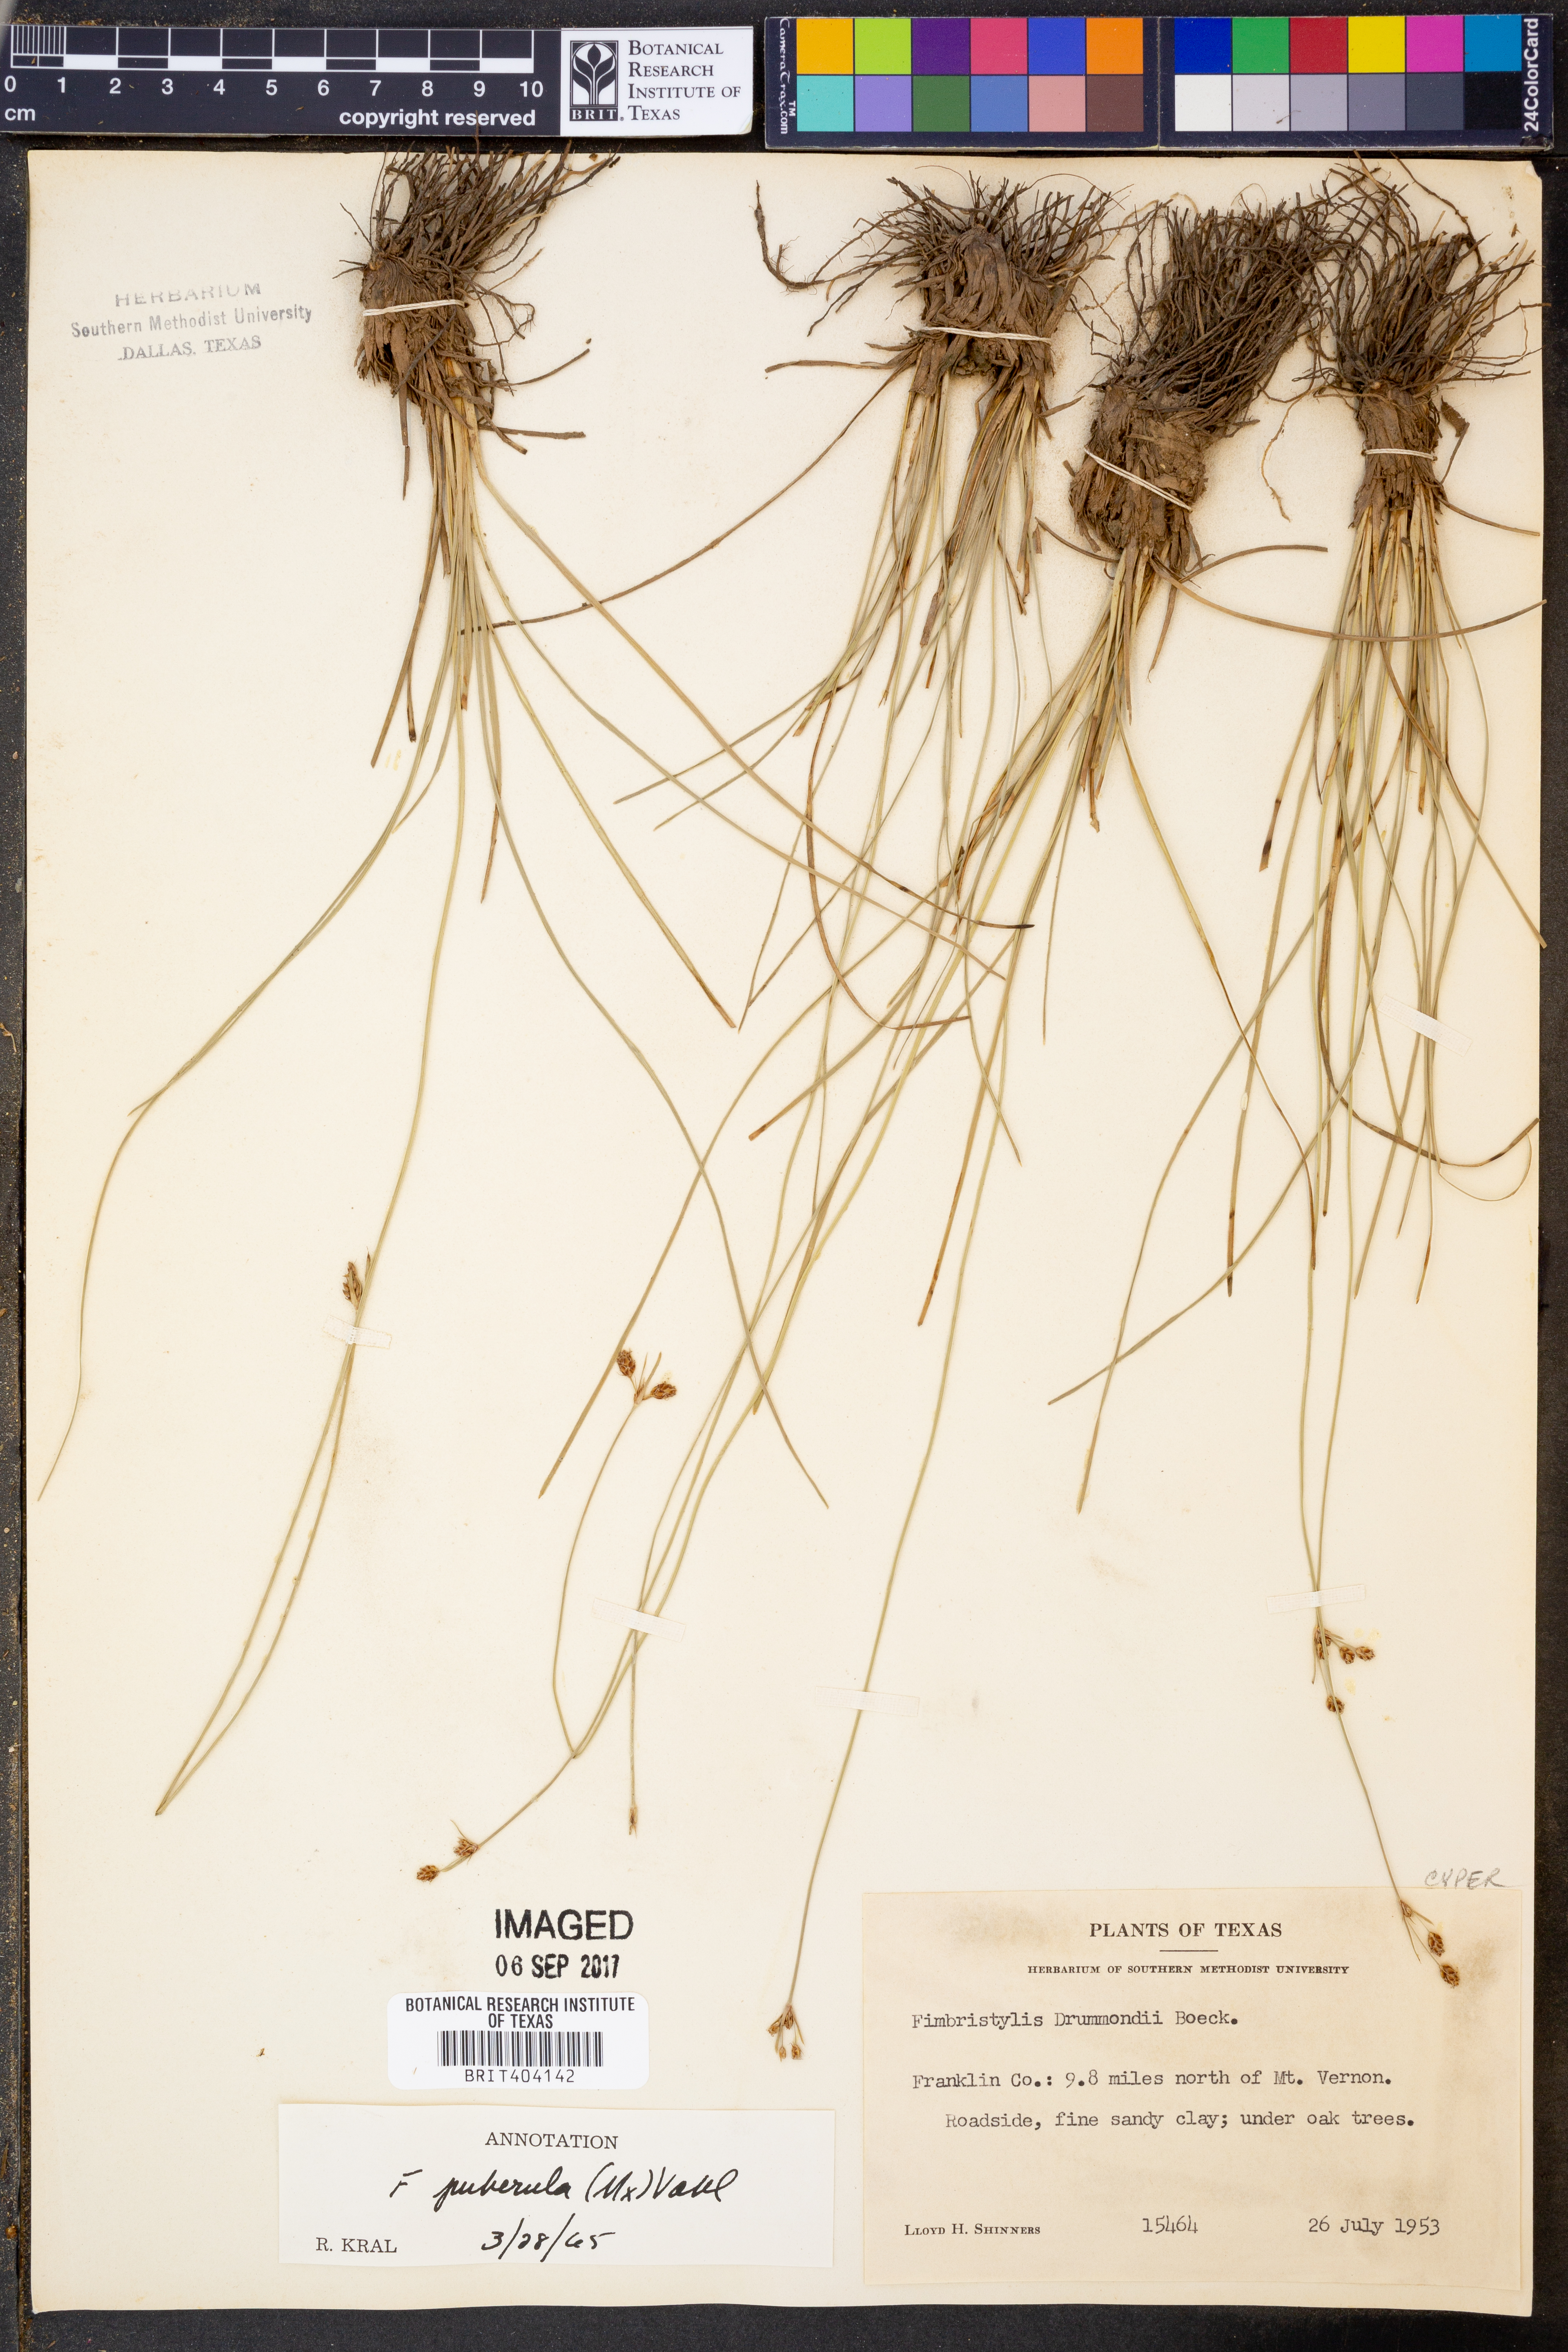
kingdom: Plantae
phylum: Tracheophyta
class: Liliopsida
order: Poales
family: Cyperaceae
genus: Fimbristylis
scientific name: Fimbristylis puberula
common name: Hairy fimbristylis
